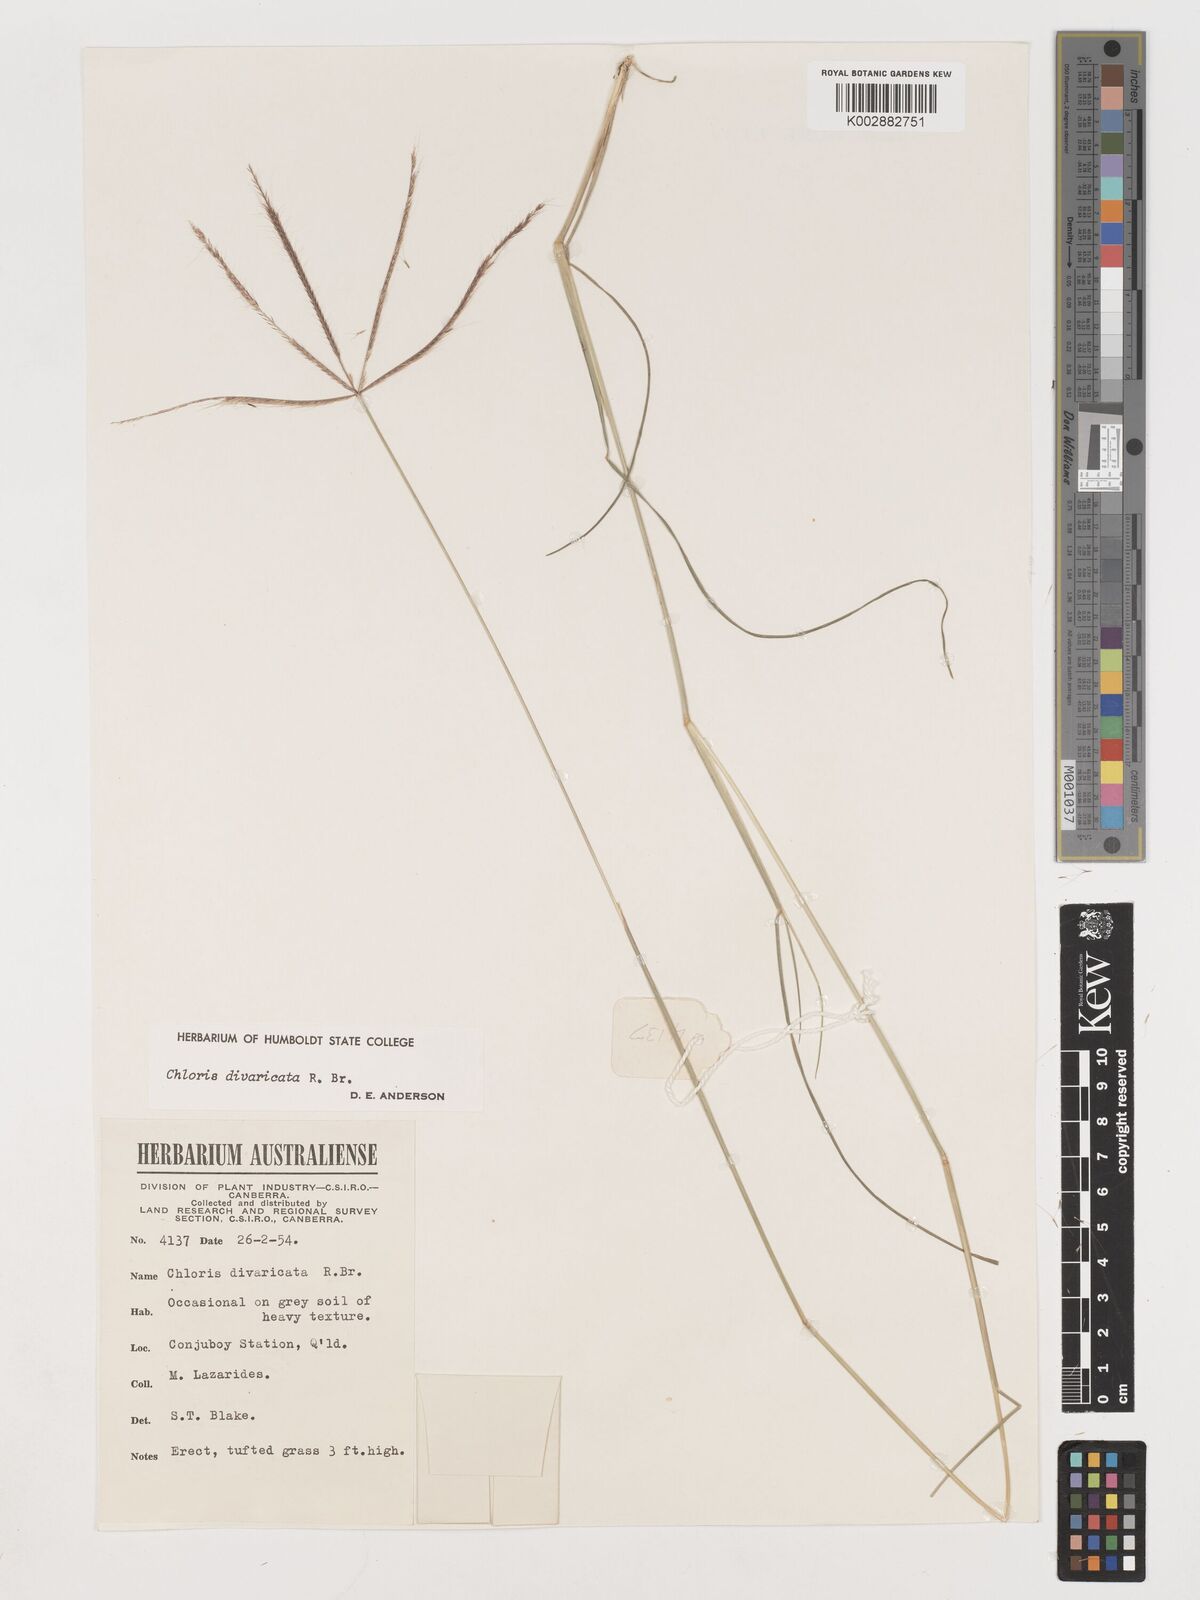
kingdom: Plantae
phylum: Tracheophyta
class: Liliopsida
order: Poales
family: Poaceae
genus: Chloris
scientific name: Chloris divaricata
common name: Spreading windmill grass
